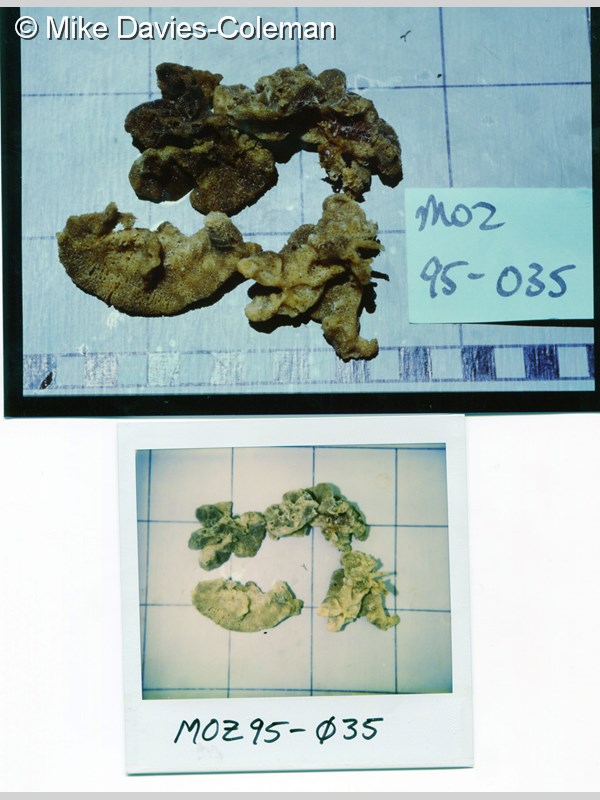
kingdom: Animalia
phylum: Porifera
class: Calcarea
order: Clathrinida
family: Clathrinidae
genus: Clathrina
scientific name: Clathrina
